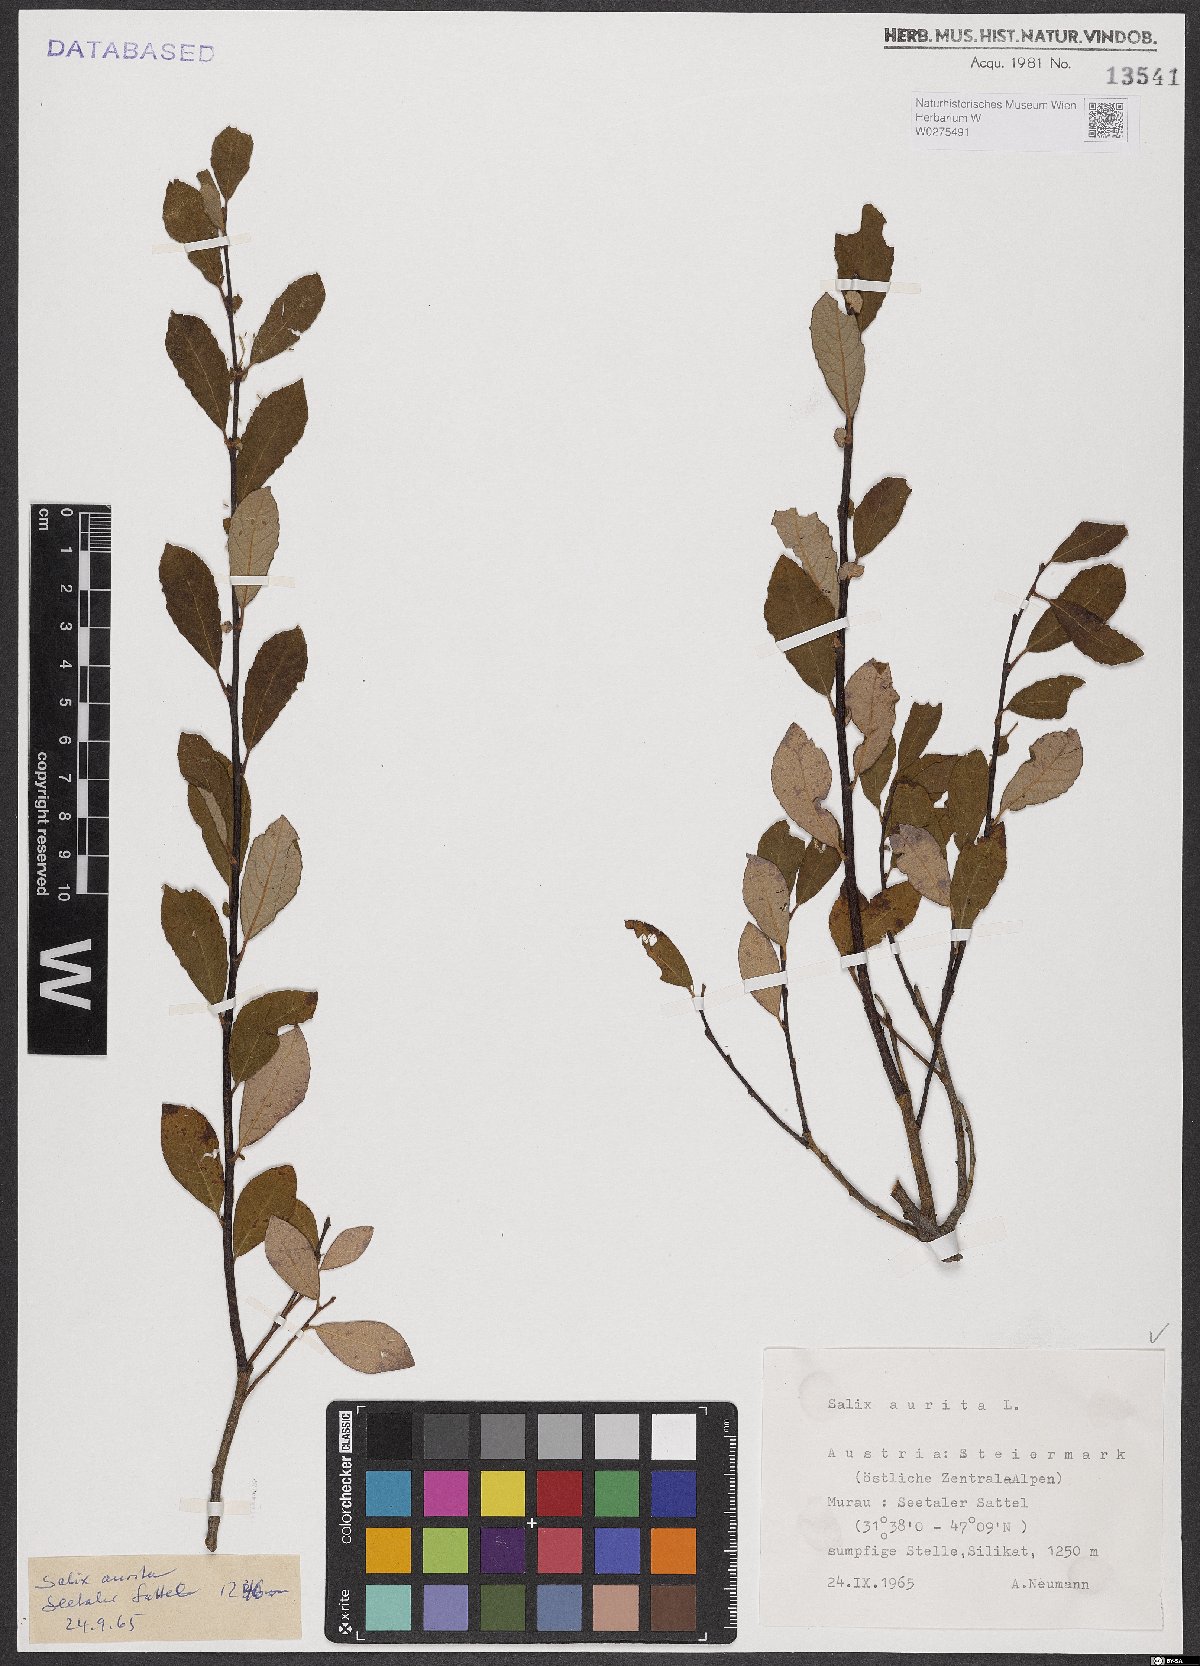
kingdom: Plantae
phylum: Tracheophyta
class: Magnoliopsida
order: Malpighiales
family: Salicaceae
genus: Salix
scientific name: Salix aurita
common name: Eared willow
